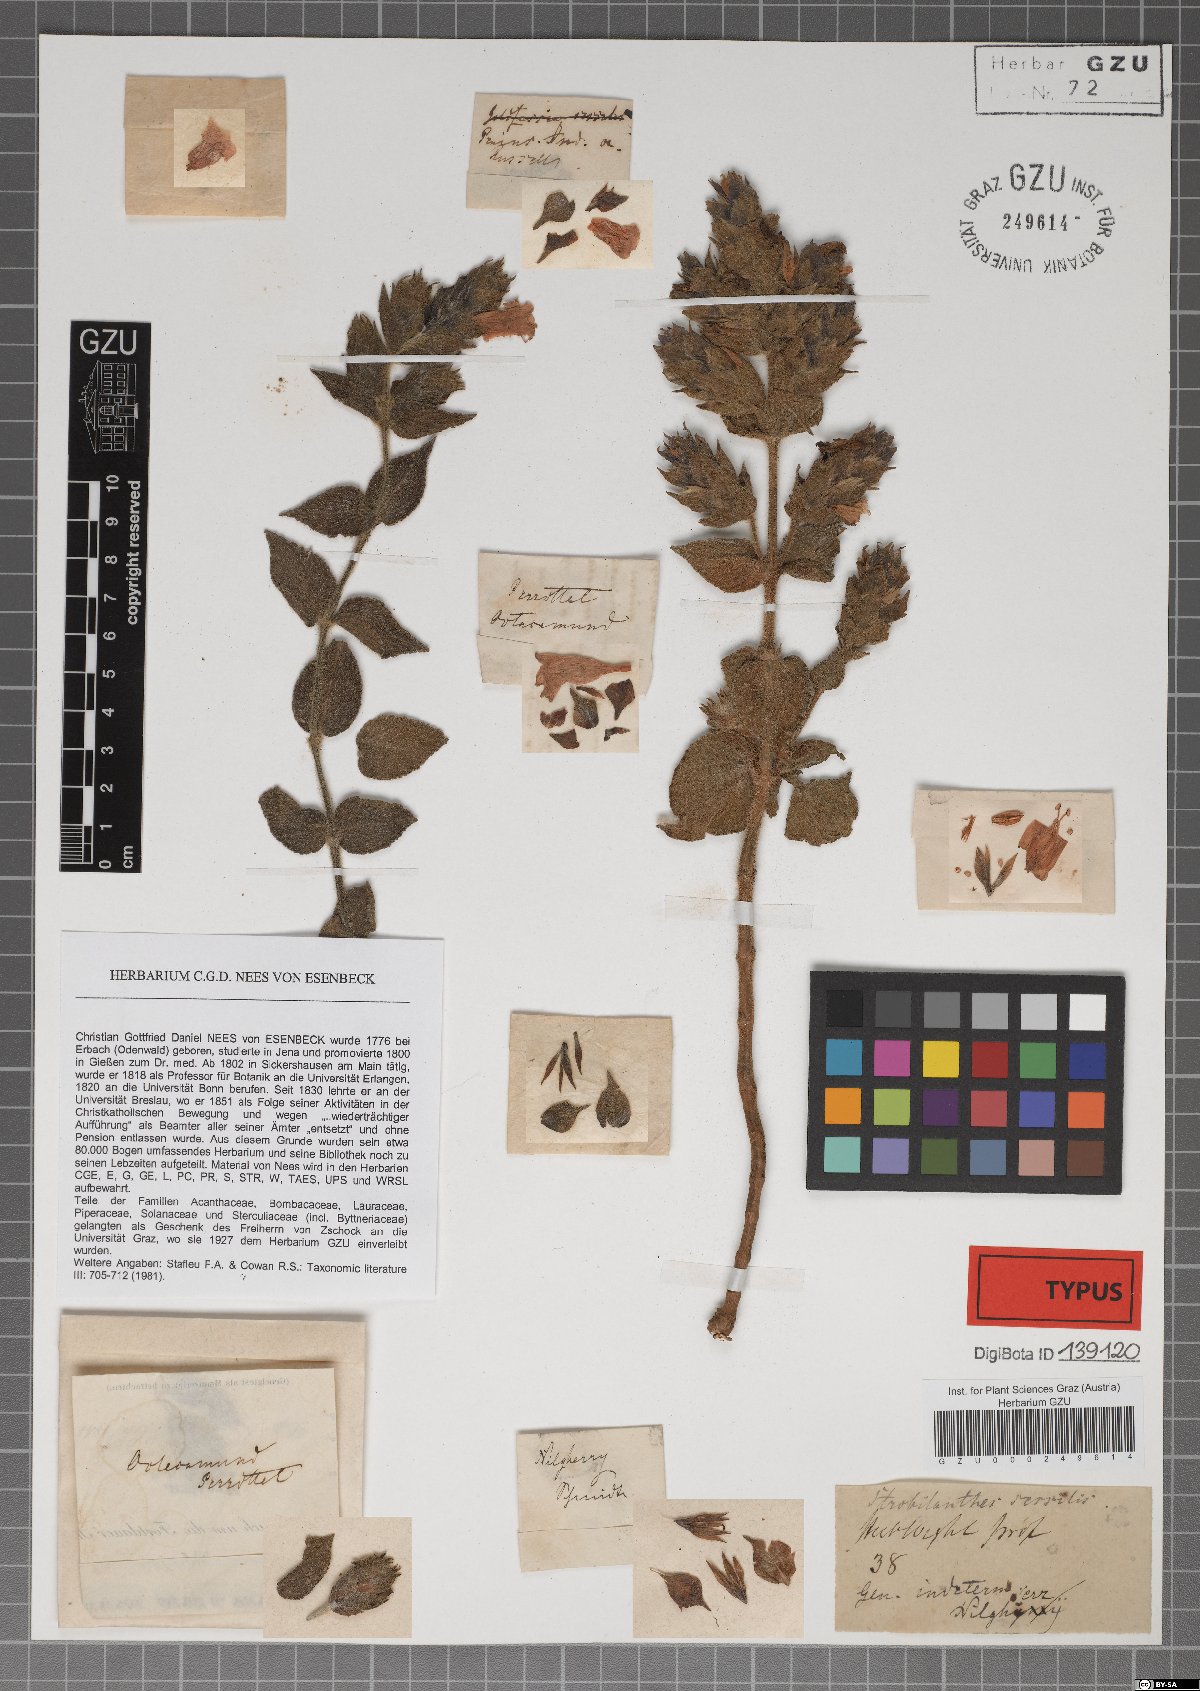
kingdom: Plantae
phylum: Tracheophyta
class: Magnoliopsida
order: Lamiales
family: Acanthaceae
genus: Strobilanthes
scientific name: Strobilanthes sessilis
